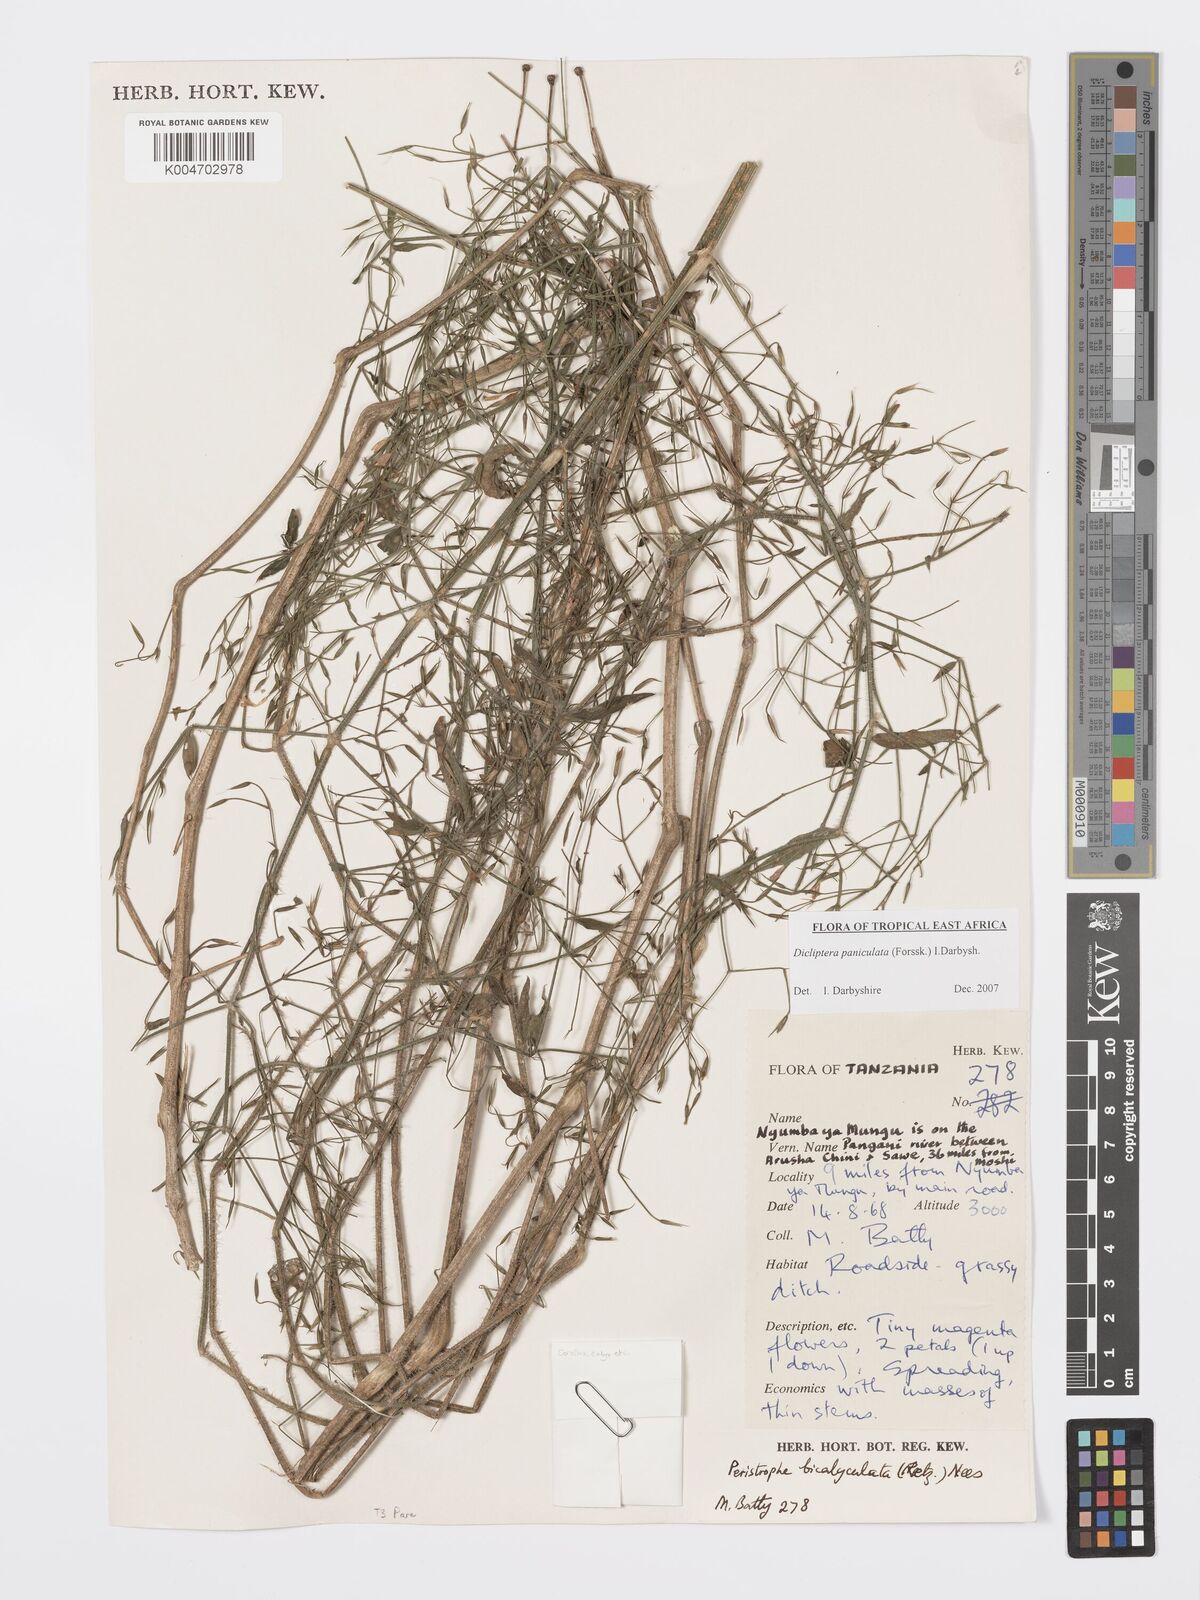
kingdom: Plantae
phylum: Tracheophyta
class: Magnoliopsida
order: Lamiales
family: Acanthaceae
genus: Dicliptera
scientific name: Dicliptera paniculata
